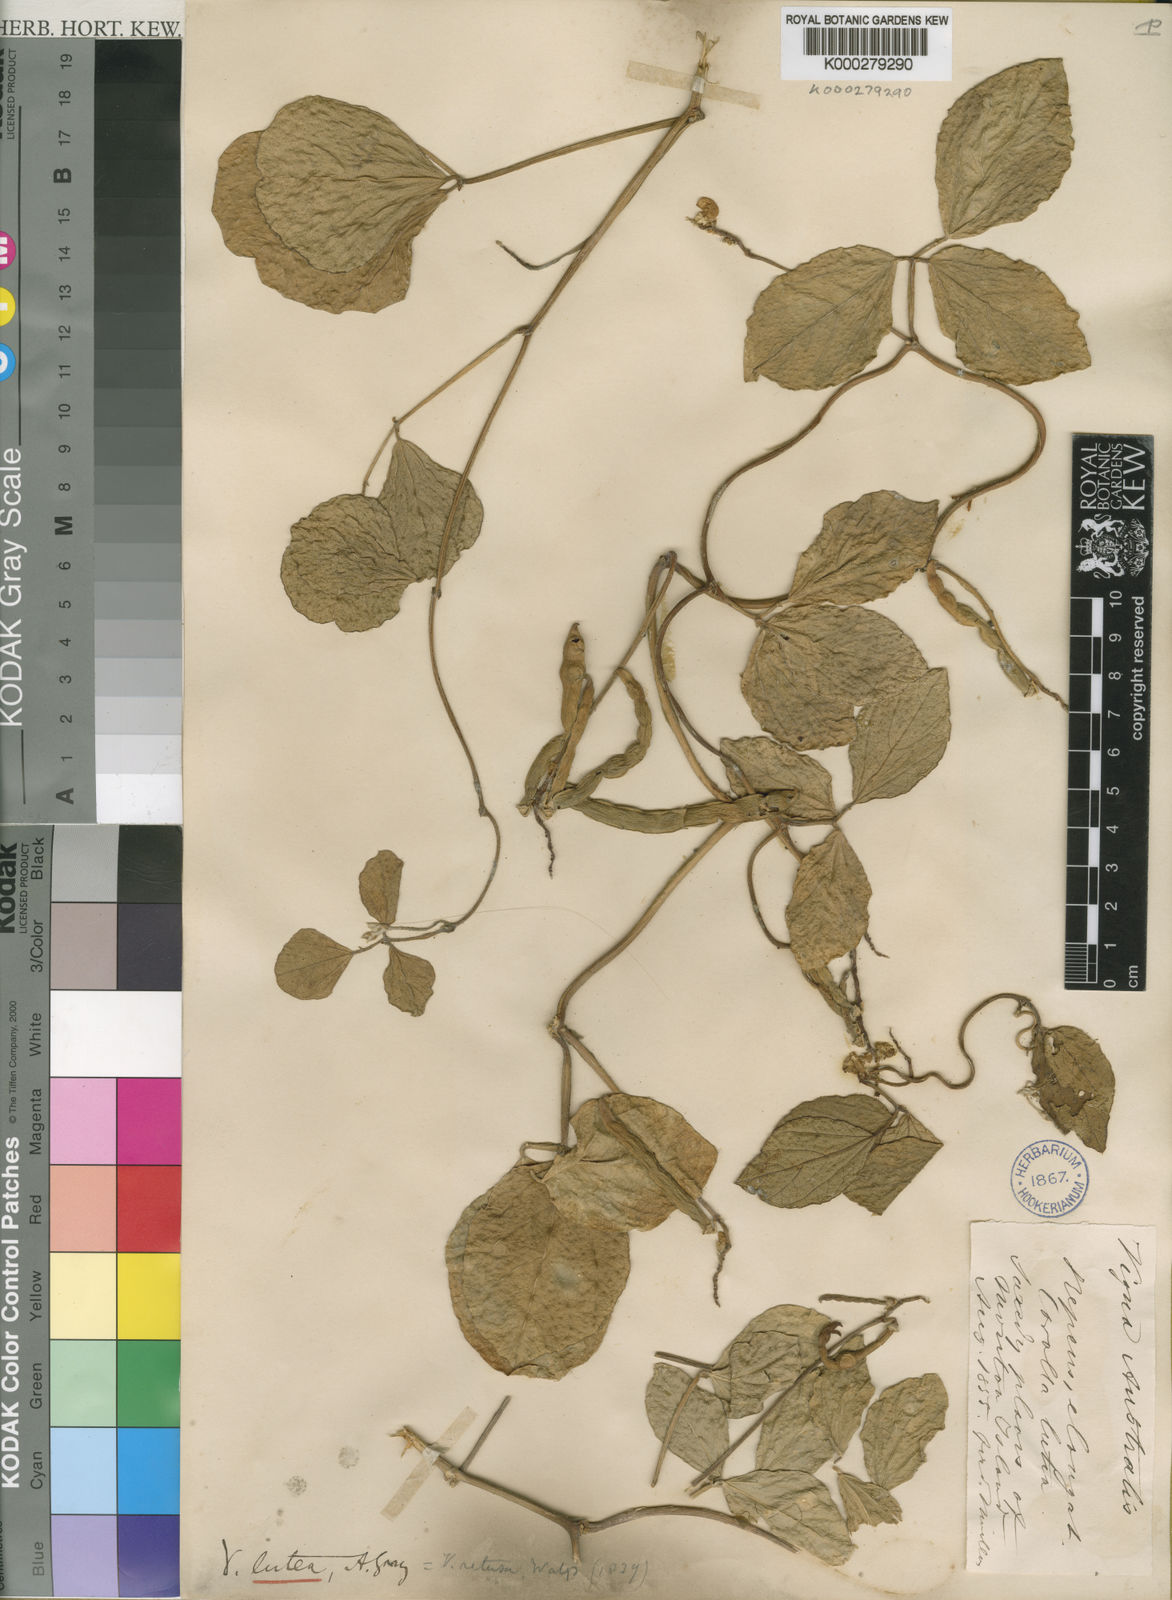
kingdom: Plantae
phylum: Tracheophyta
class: Magnoliopsida
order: Fabales
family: Fabaceae
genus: Vigna
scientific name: Vigna marina
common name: Dune-bean
